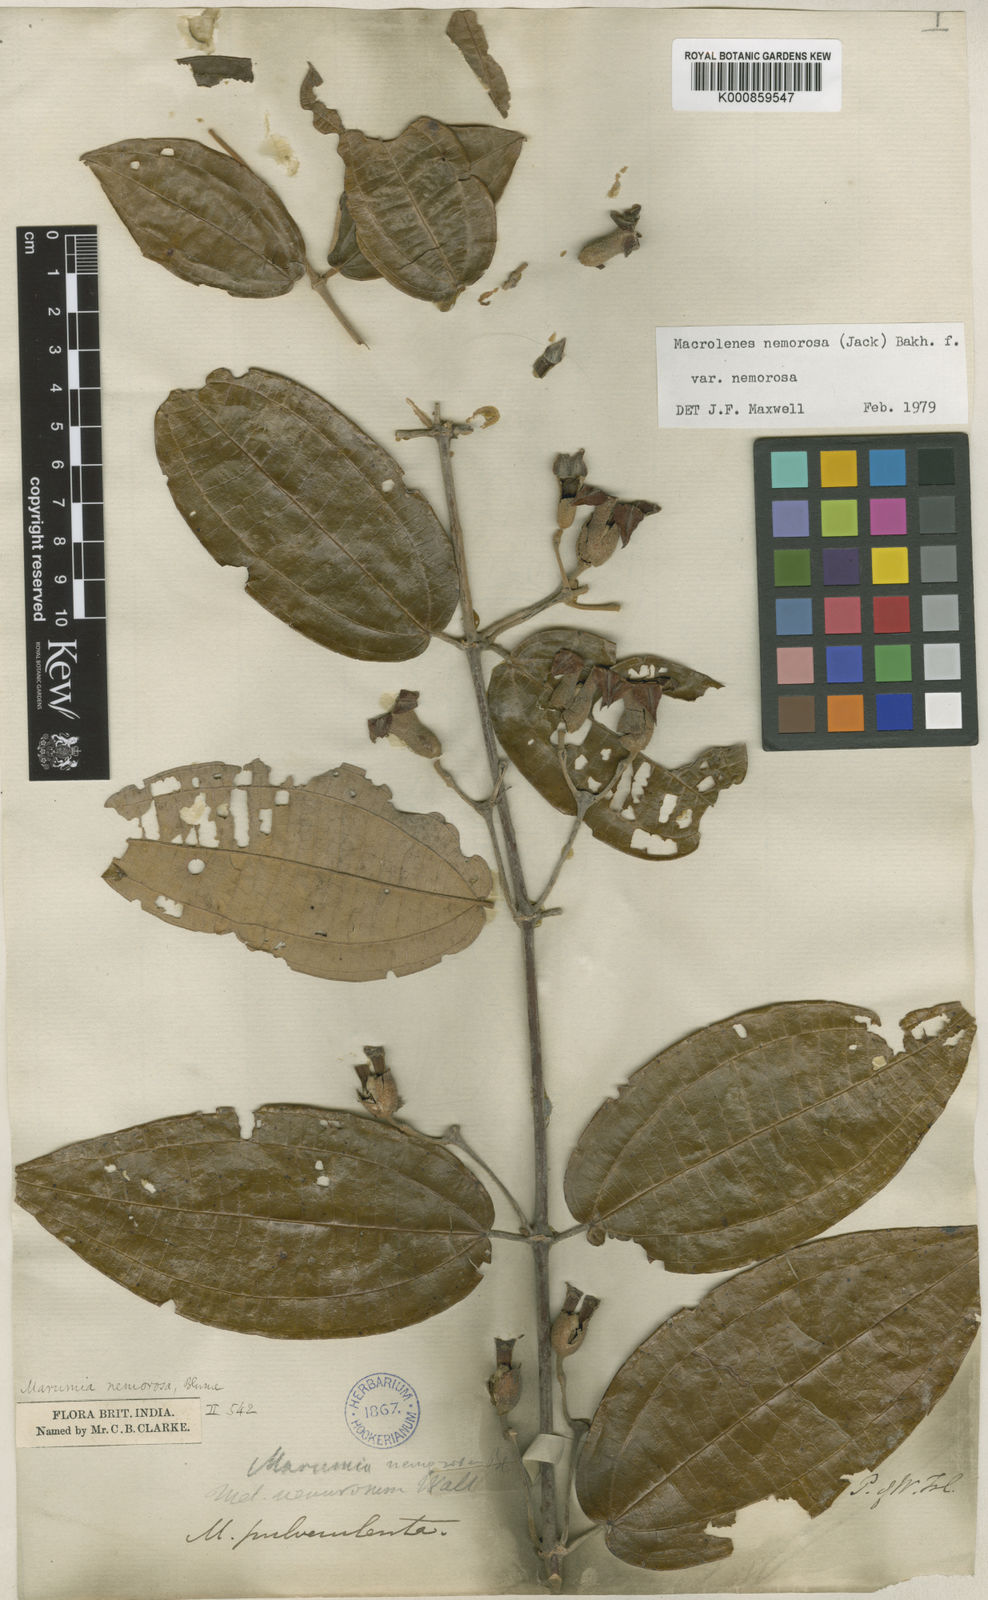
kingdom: Plantae
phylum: Tracheophyta
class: Magnoliopsida
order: Myrtales
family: Melastomataceae
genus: Macrolenes
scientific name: Macrolenes nemorosa
